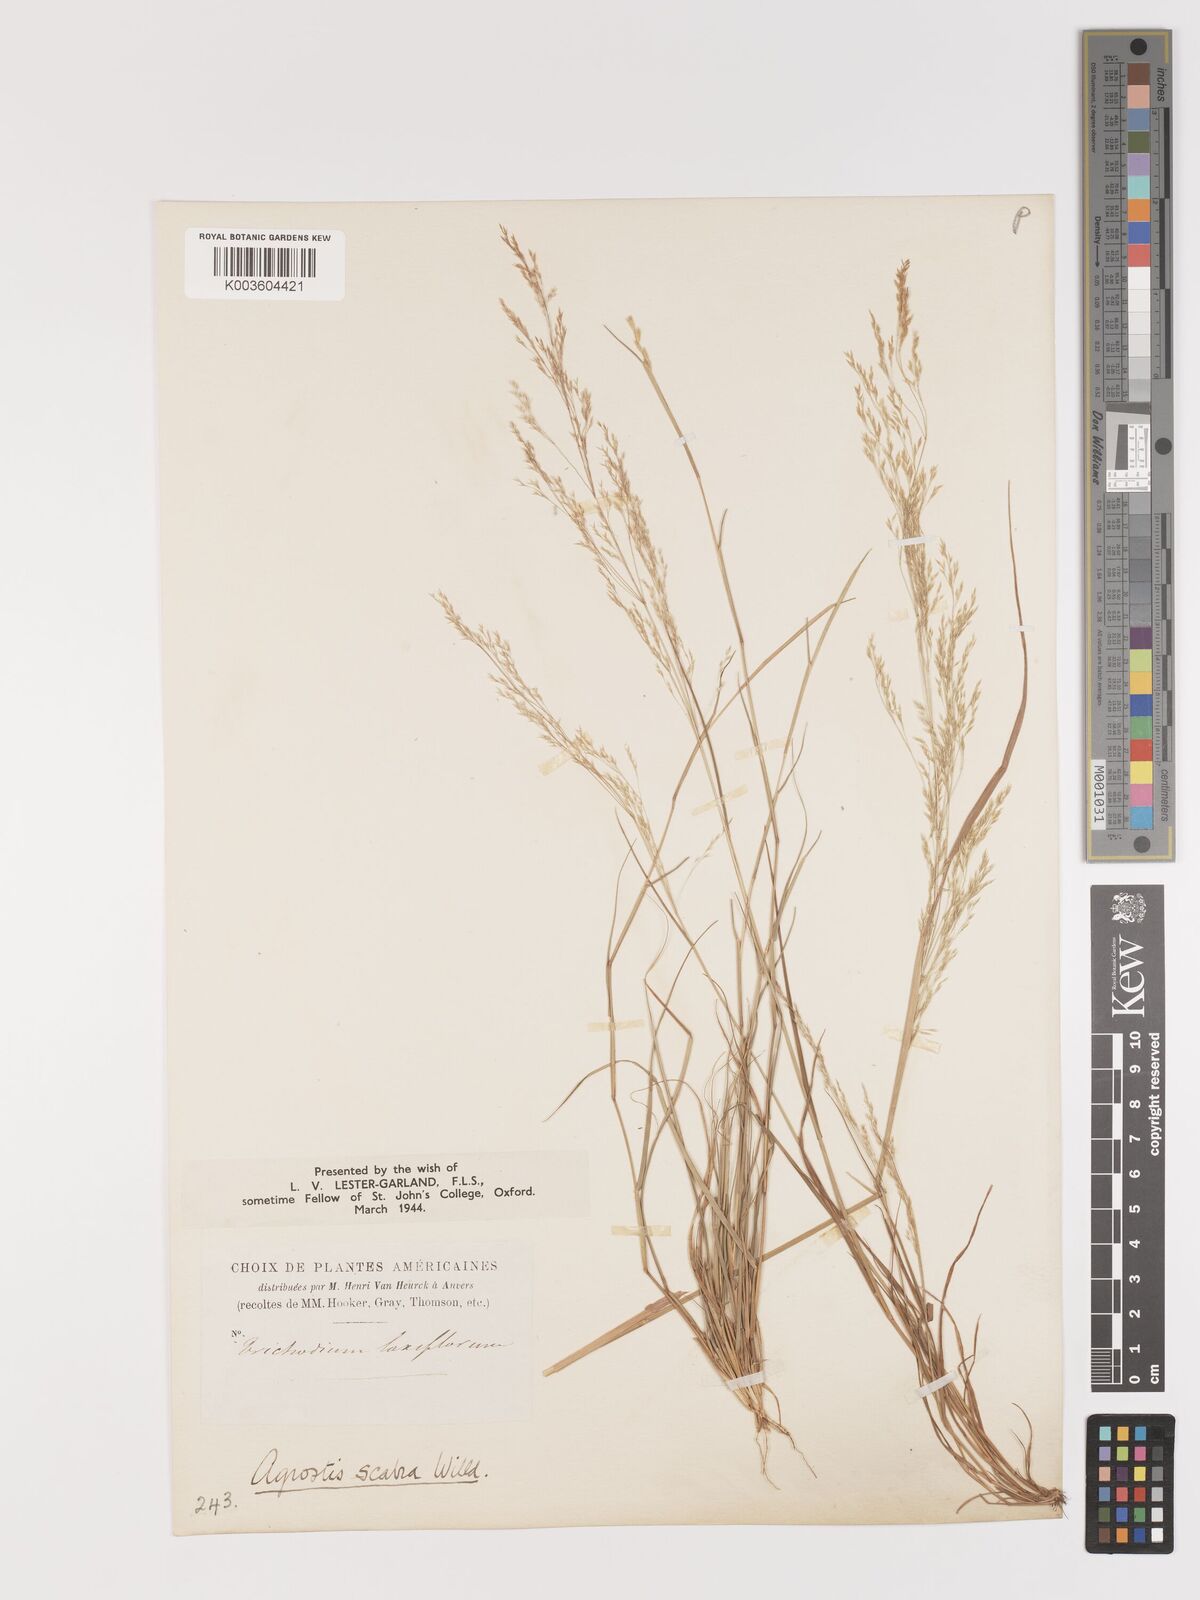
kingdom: Plantae
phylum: Tracheophyta
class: Liliopsida
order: Poales
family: Poaceae
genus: Agrostis
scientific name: Agrostis hyemalis
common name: Small bent
